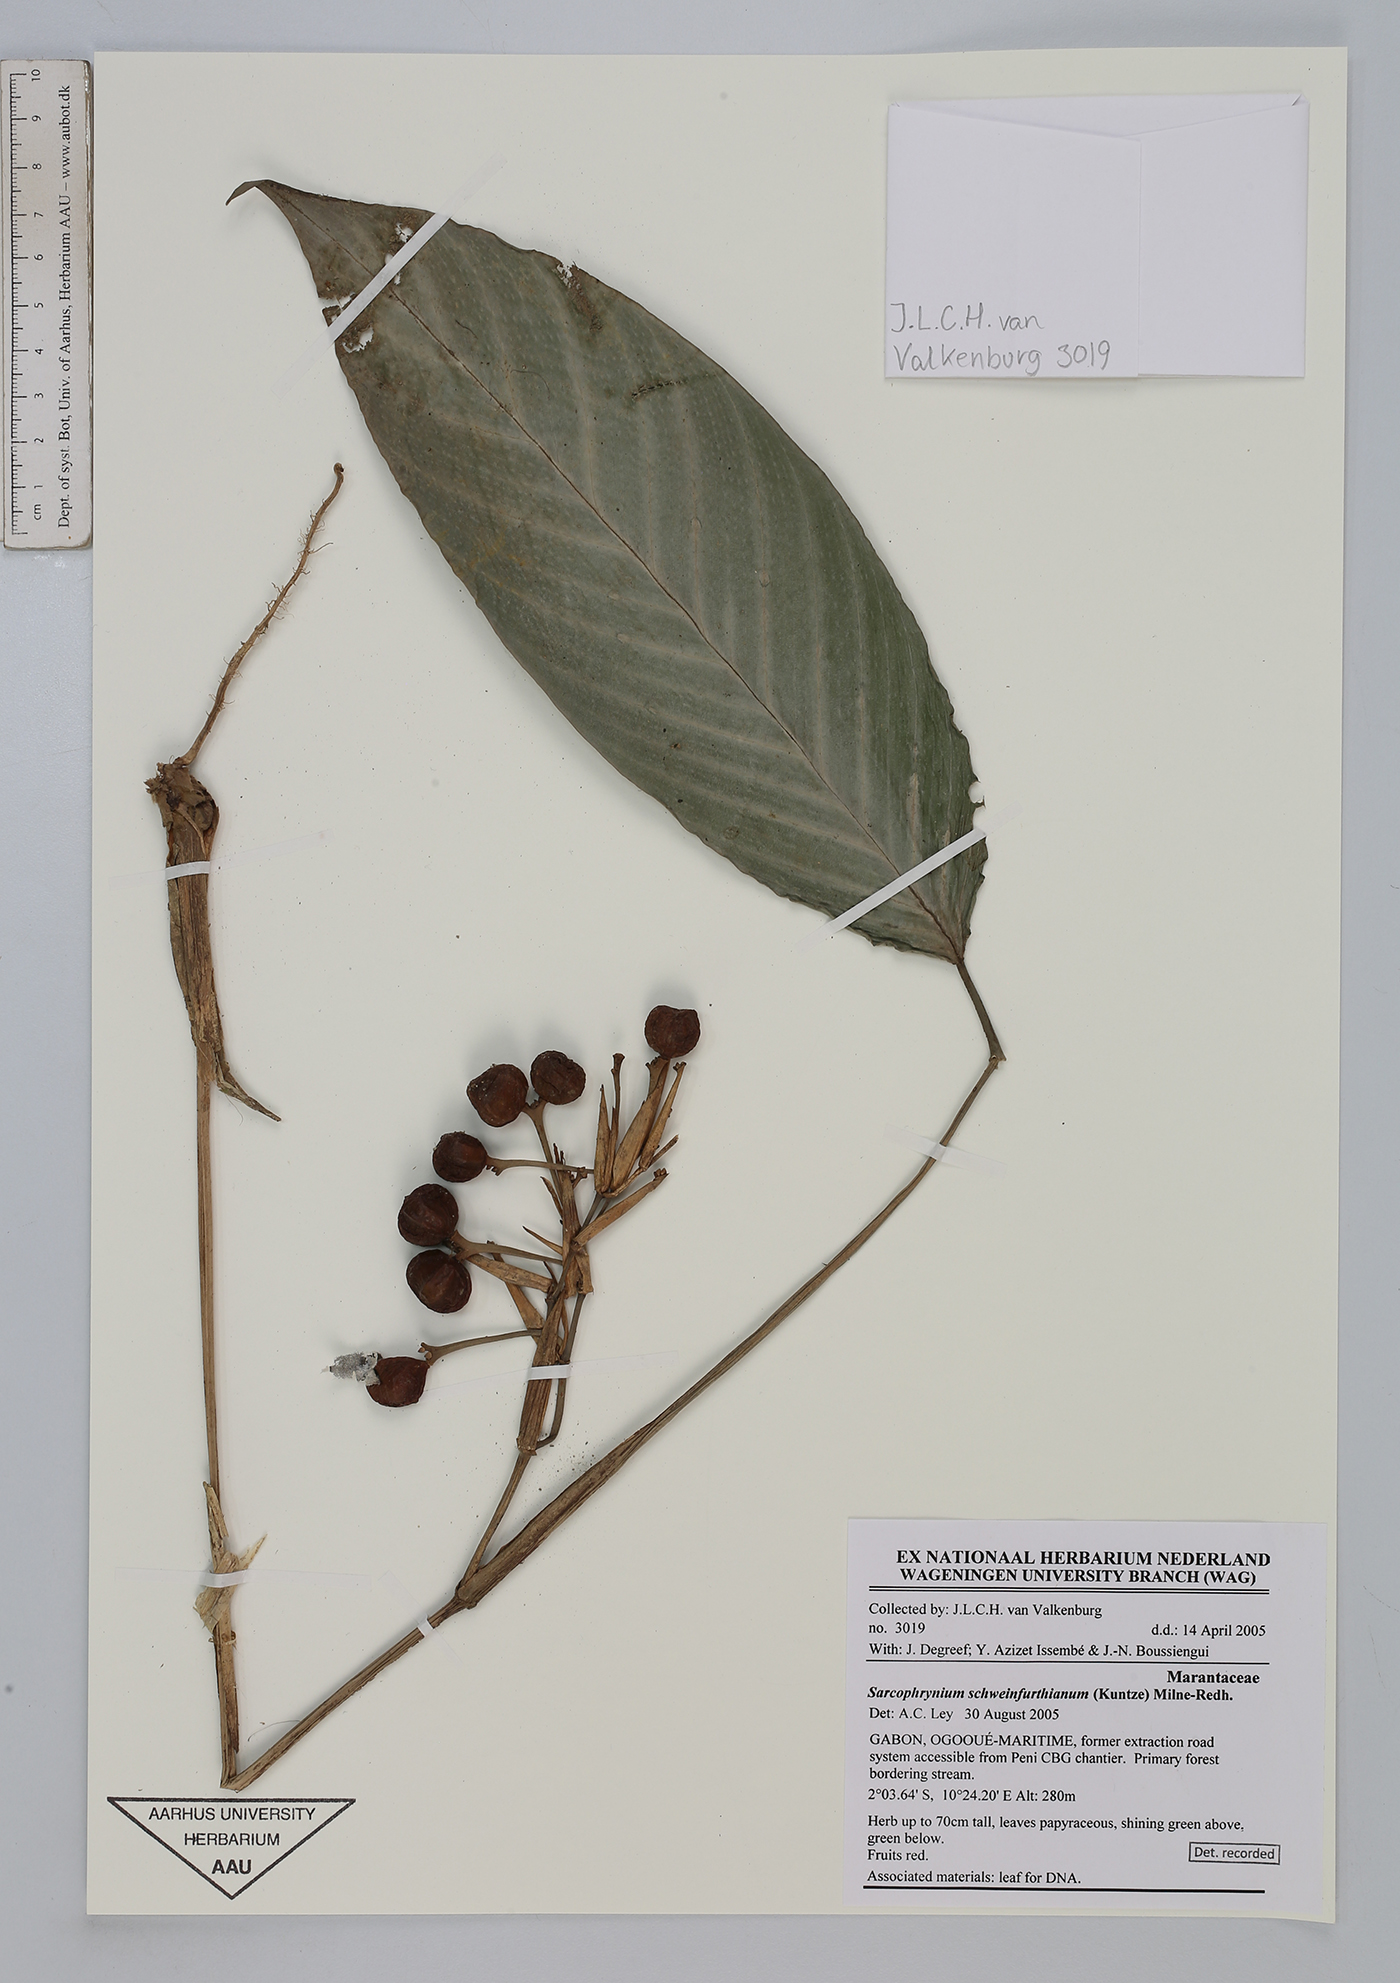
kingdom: Plantae
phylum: Tracheophyta
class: Liliopsida
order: Zingiberales
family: Marantaceae
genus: Sarcophrynium
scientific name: Sarcophrynium schweinfurthianum
